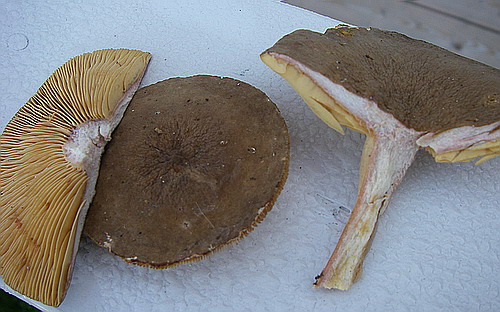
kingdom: Fungi
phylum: Basidiomycota
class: Agaricomycetes
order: Russulales
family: Russulaceae
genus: Lactarius
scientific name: Lactarius pterosporus
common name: vingesporet mælkehat
